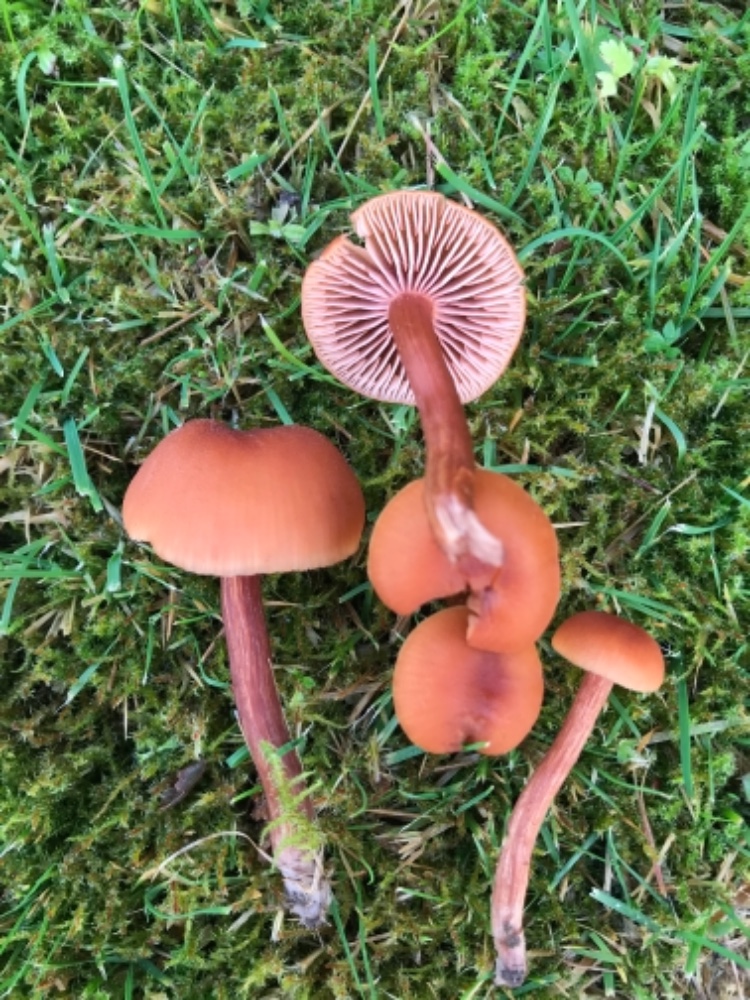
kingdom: Fungi
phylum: Basidiomycota
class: Agaricomycetes
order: Agaricales
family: Hydnangiaceae
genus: Laccaria
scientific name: Laccaria laccata
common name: rød ametysthat
